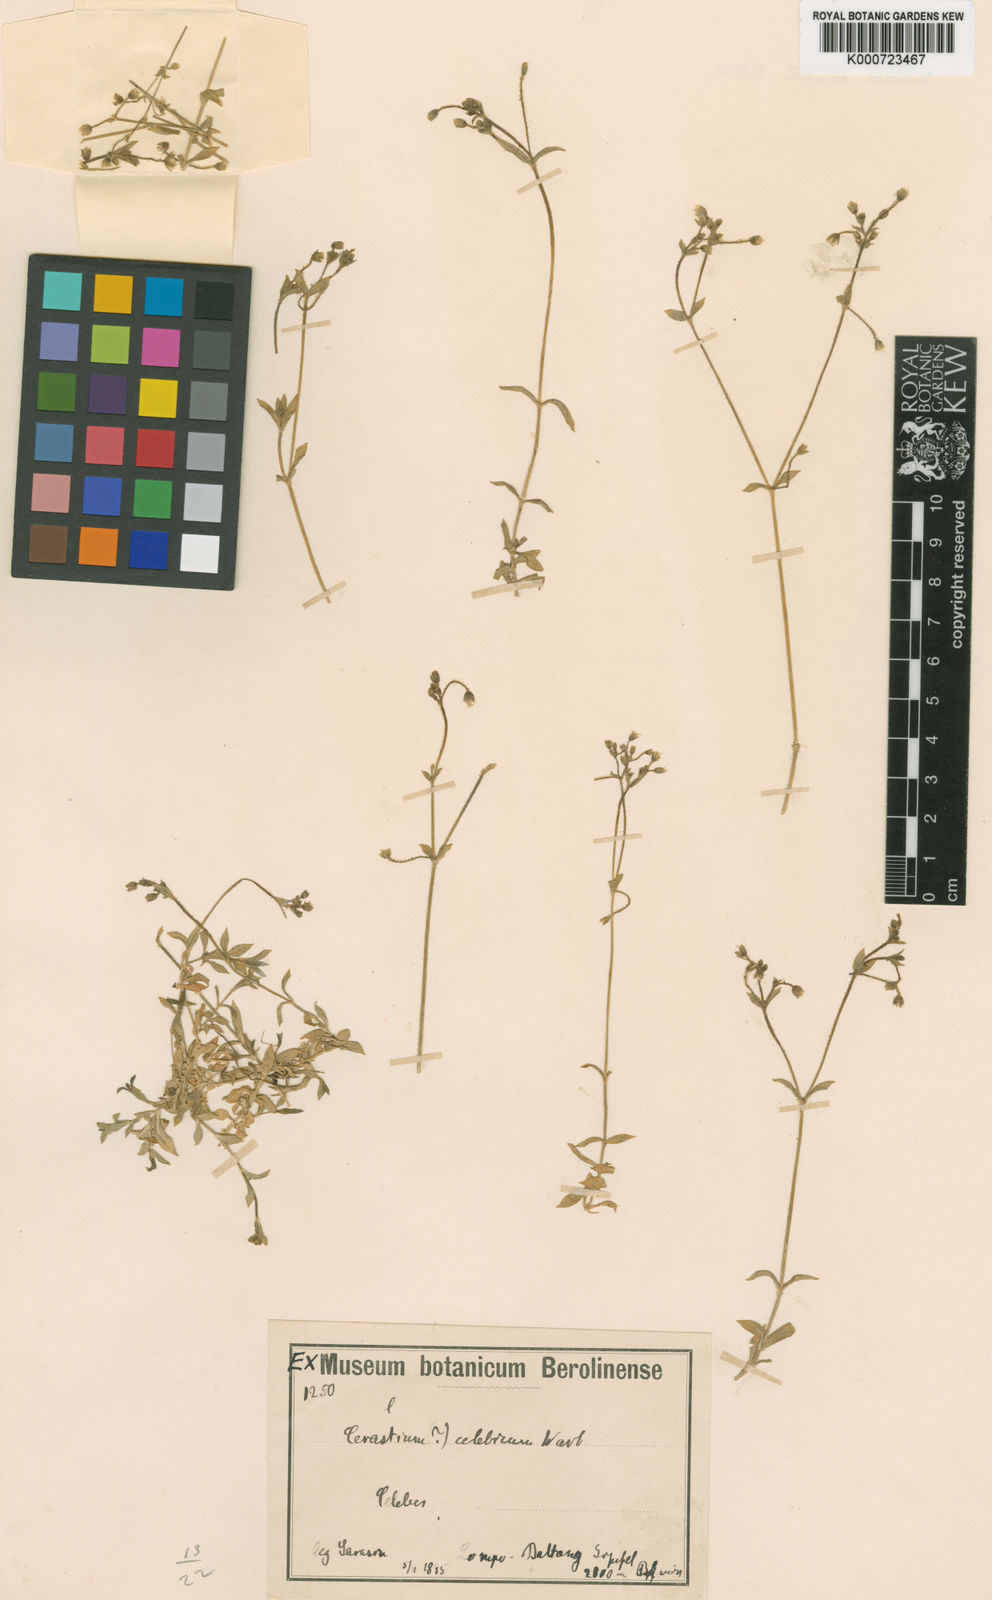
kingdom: Plantae
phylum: Tracheophyta
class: Magnoliopsida
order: Caryophyllales
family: Caryophyllaceae
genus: Cerastium
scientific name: Cerastium glomeratum
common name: Sticky chickweed
